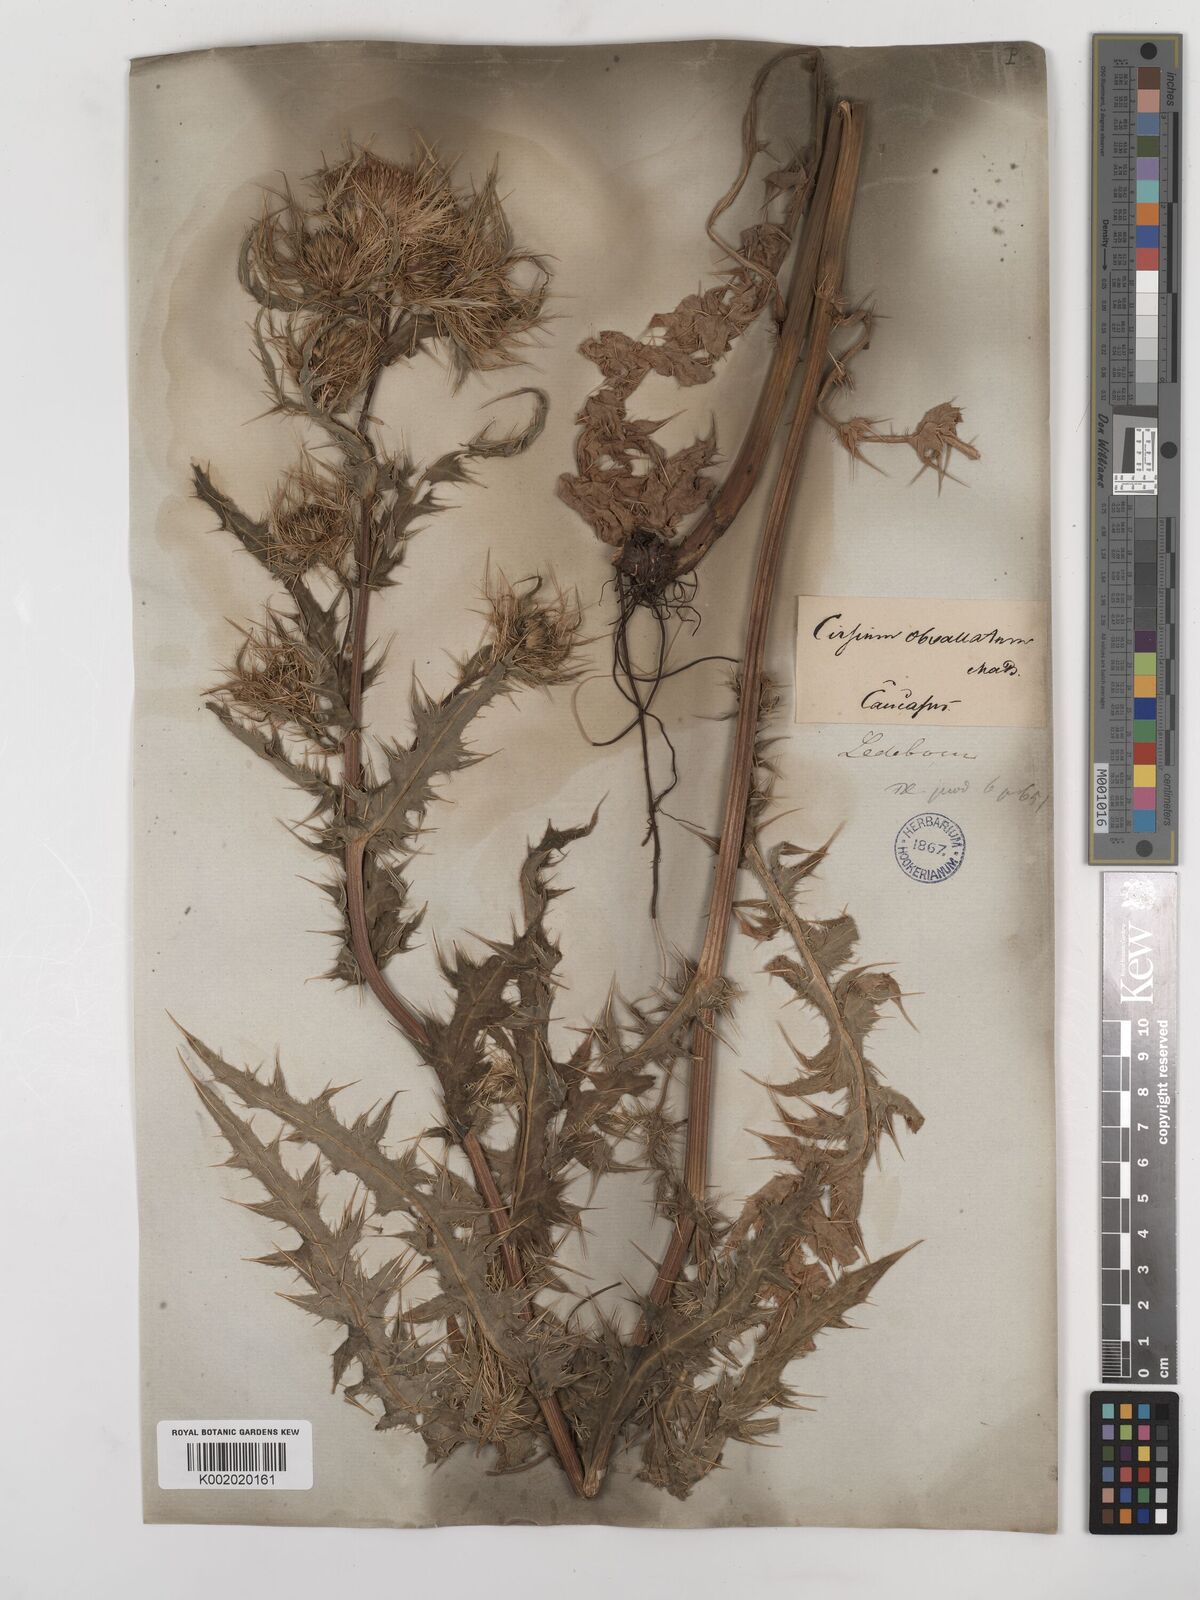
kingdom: Plantae
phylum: Tracheophyta
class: Magnoliopsida
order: Asterales
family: Asteraceae
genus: Cirsium
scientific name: Cirsium obvallatum
